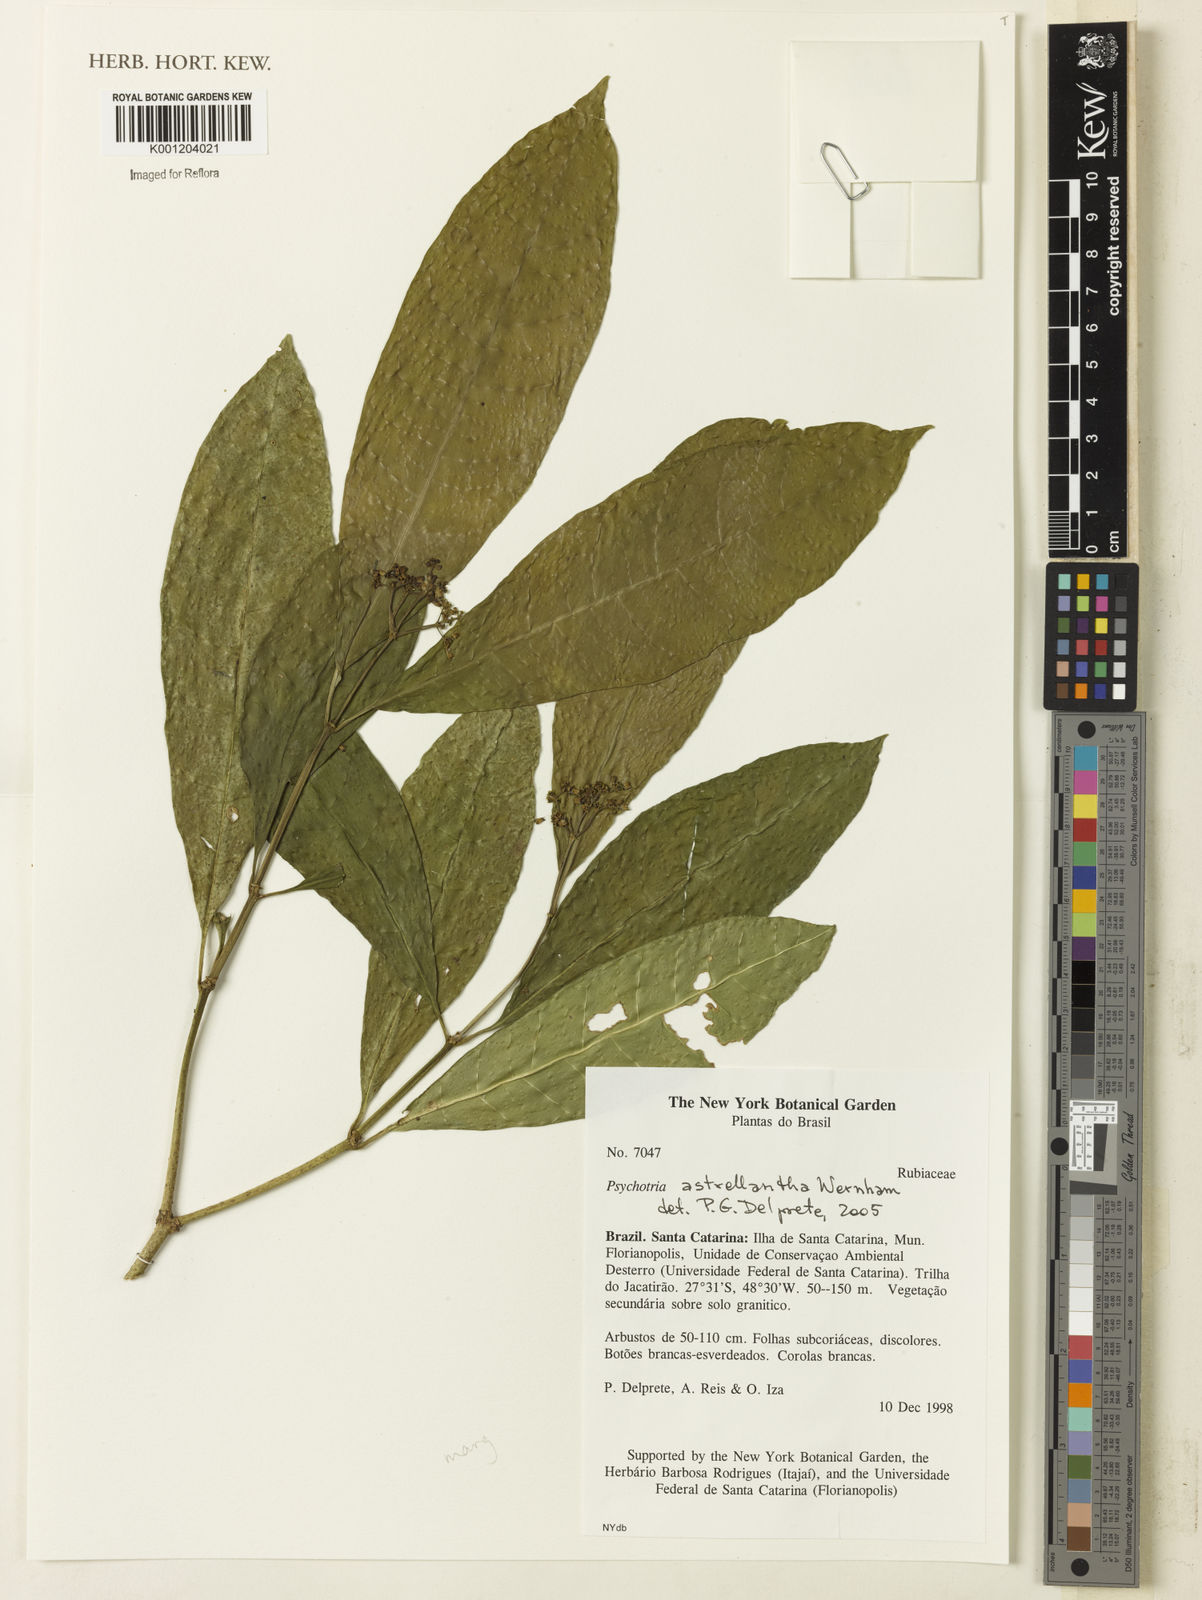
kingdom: Plantae
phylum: Tracheophyta
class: Magnoliopsida
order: Gentianales
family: Rubiaceae
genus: Eumachia
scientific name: Eumachia astrellantha
